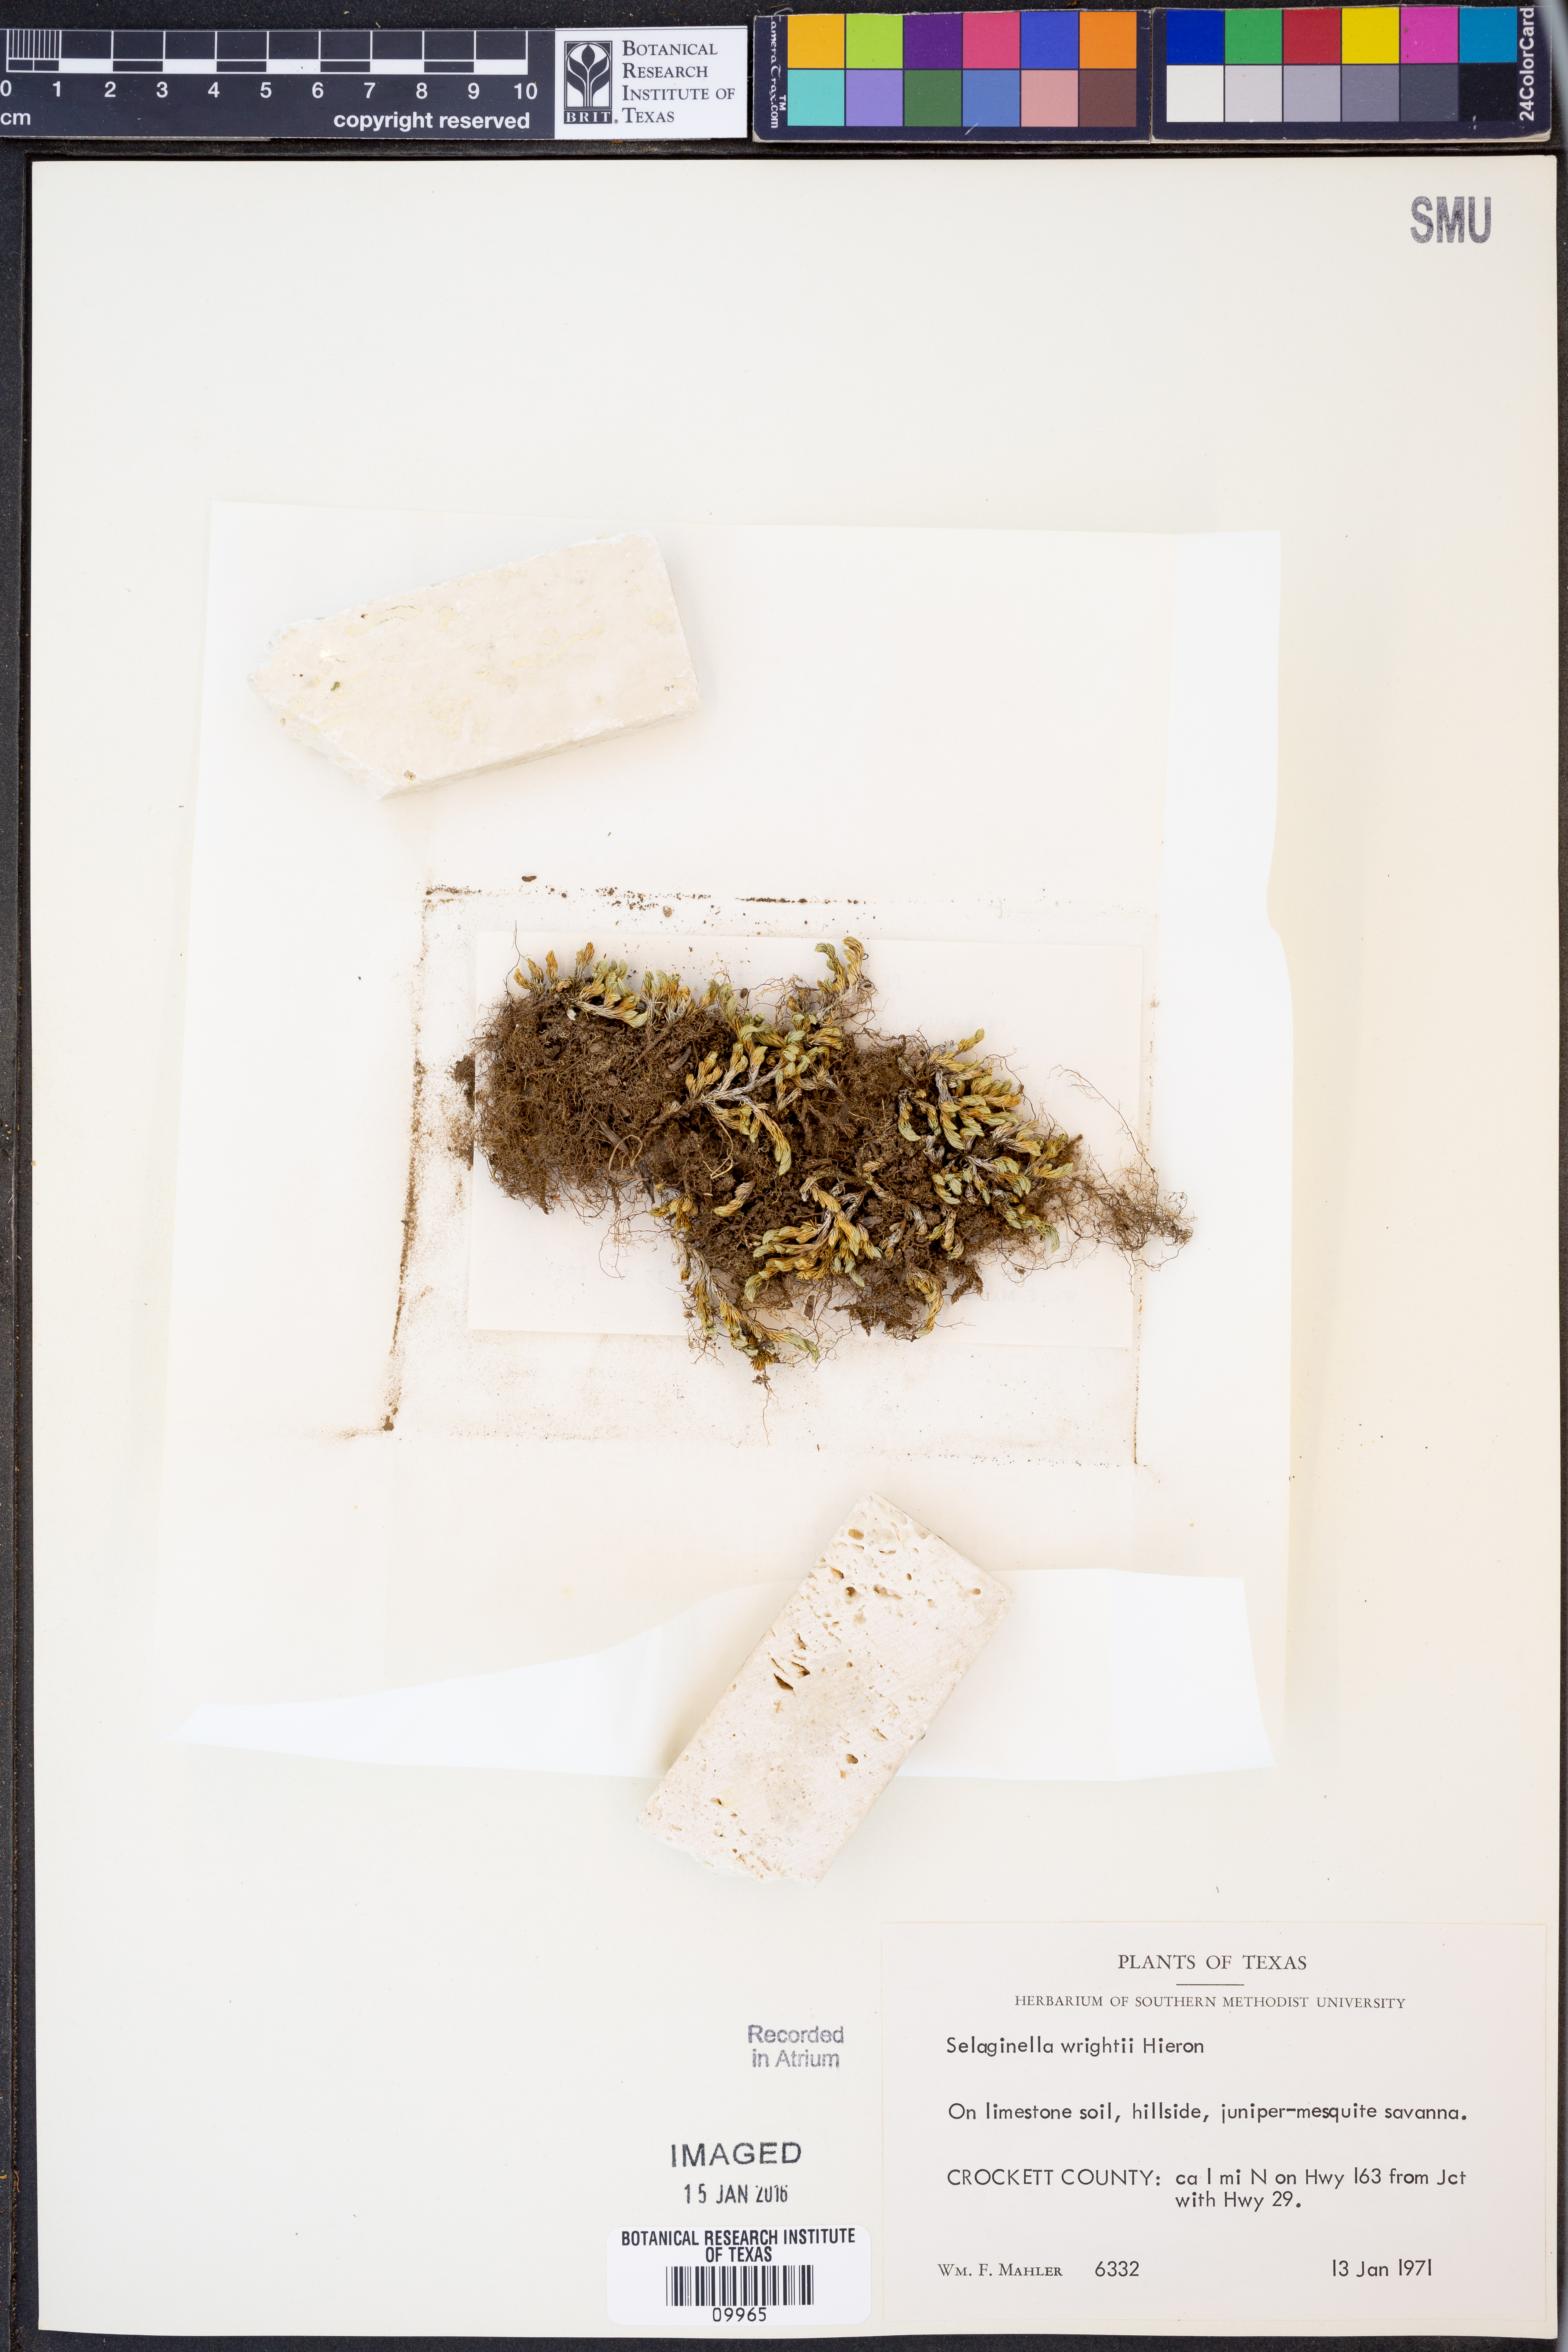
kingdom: Plantae
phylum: Tracheophyta
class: Lycopodiopsida
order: Selaginellales
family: Selaginellaceae
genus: Selaginella
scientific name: Selaginella wrightii
